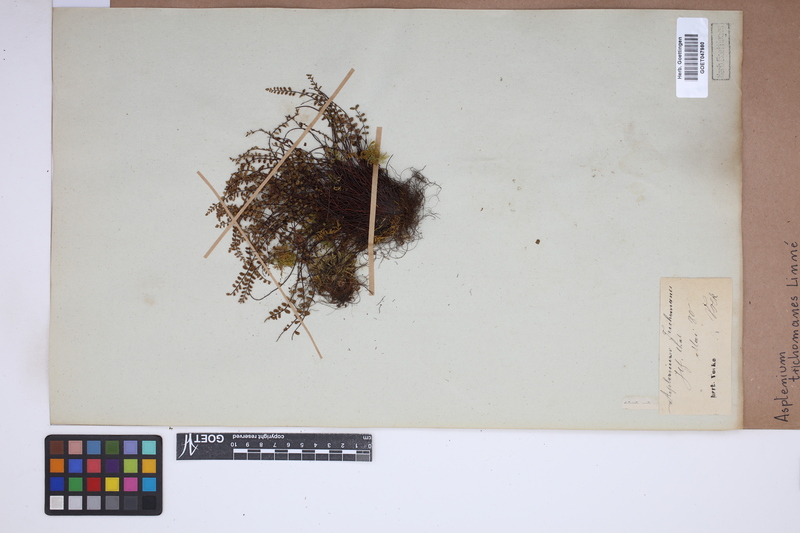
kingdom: Plantae
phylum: Tracheophyta
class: Polypodiopsida
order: Polypodiales
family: Aspleniaceae
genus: Asplenium
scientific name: Asplenium trichomanes
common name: Maidenhair spleenwort
